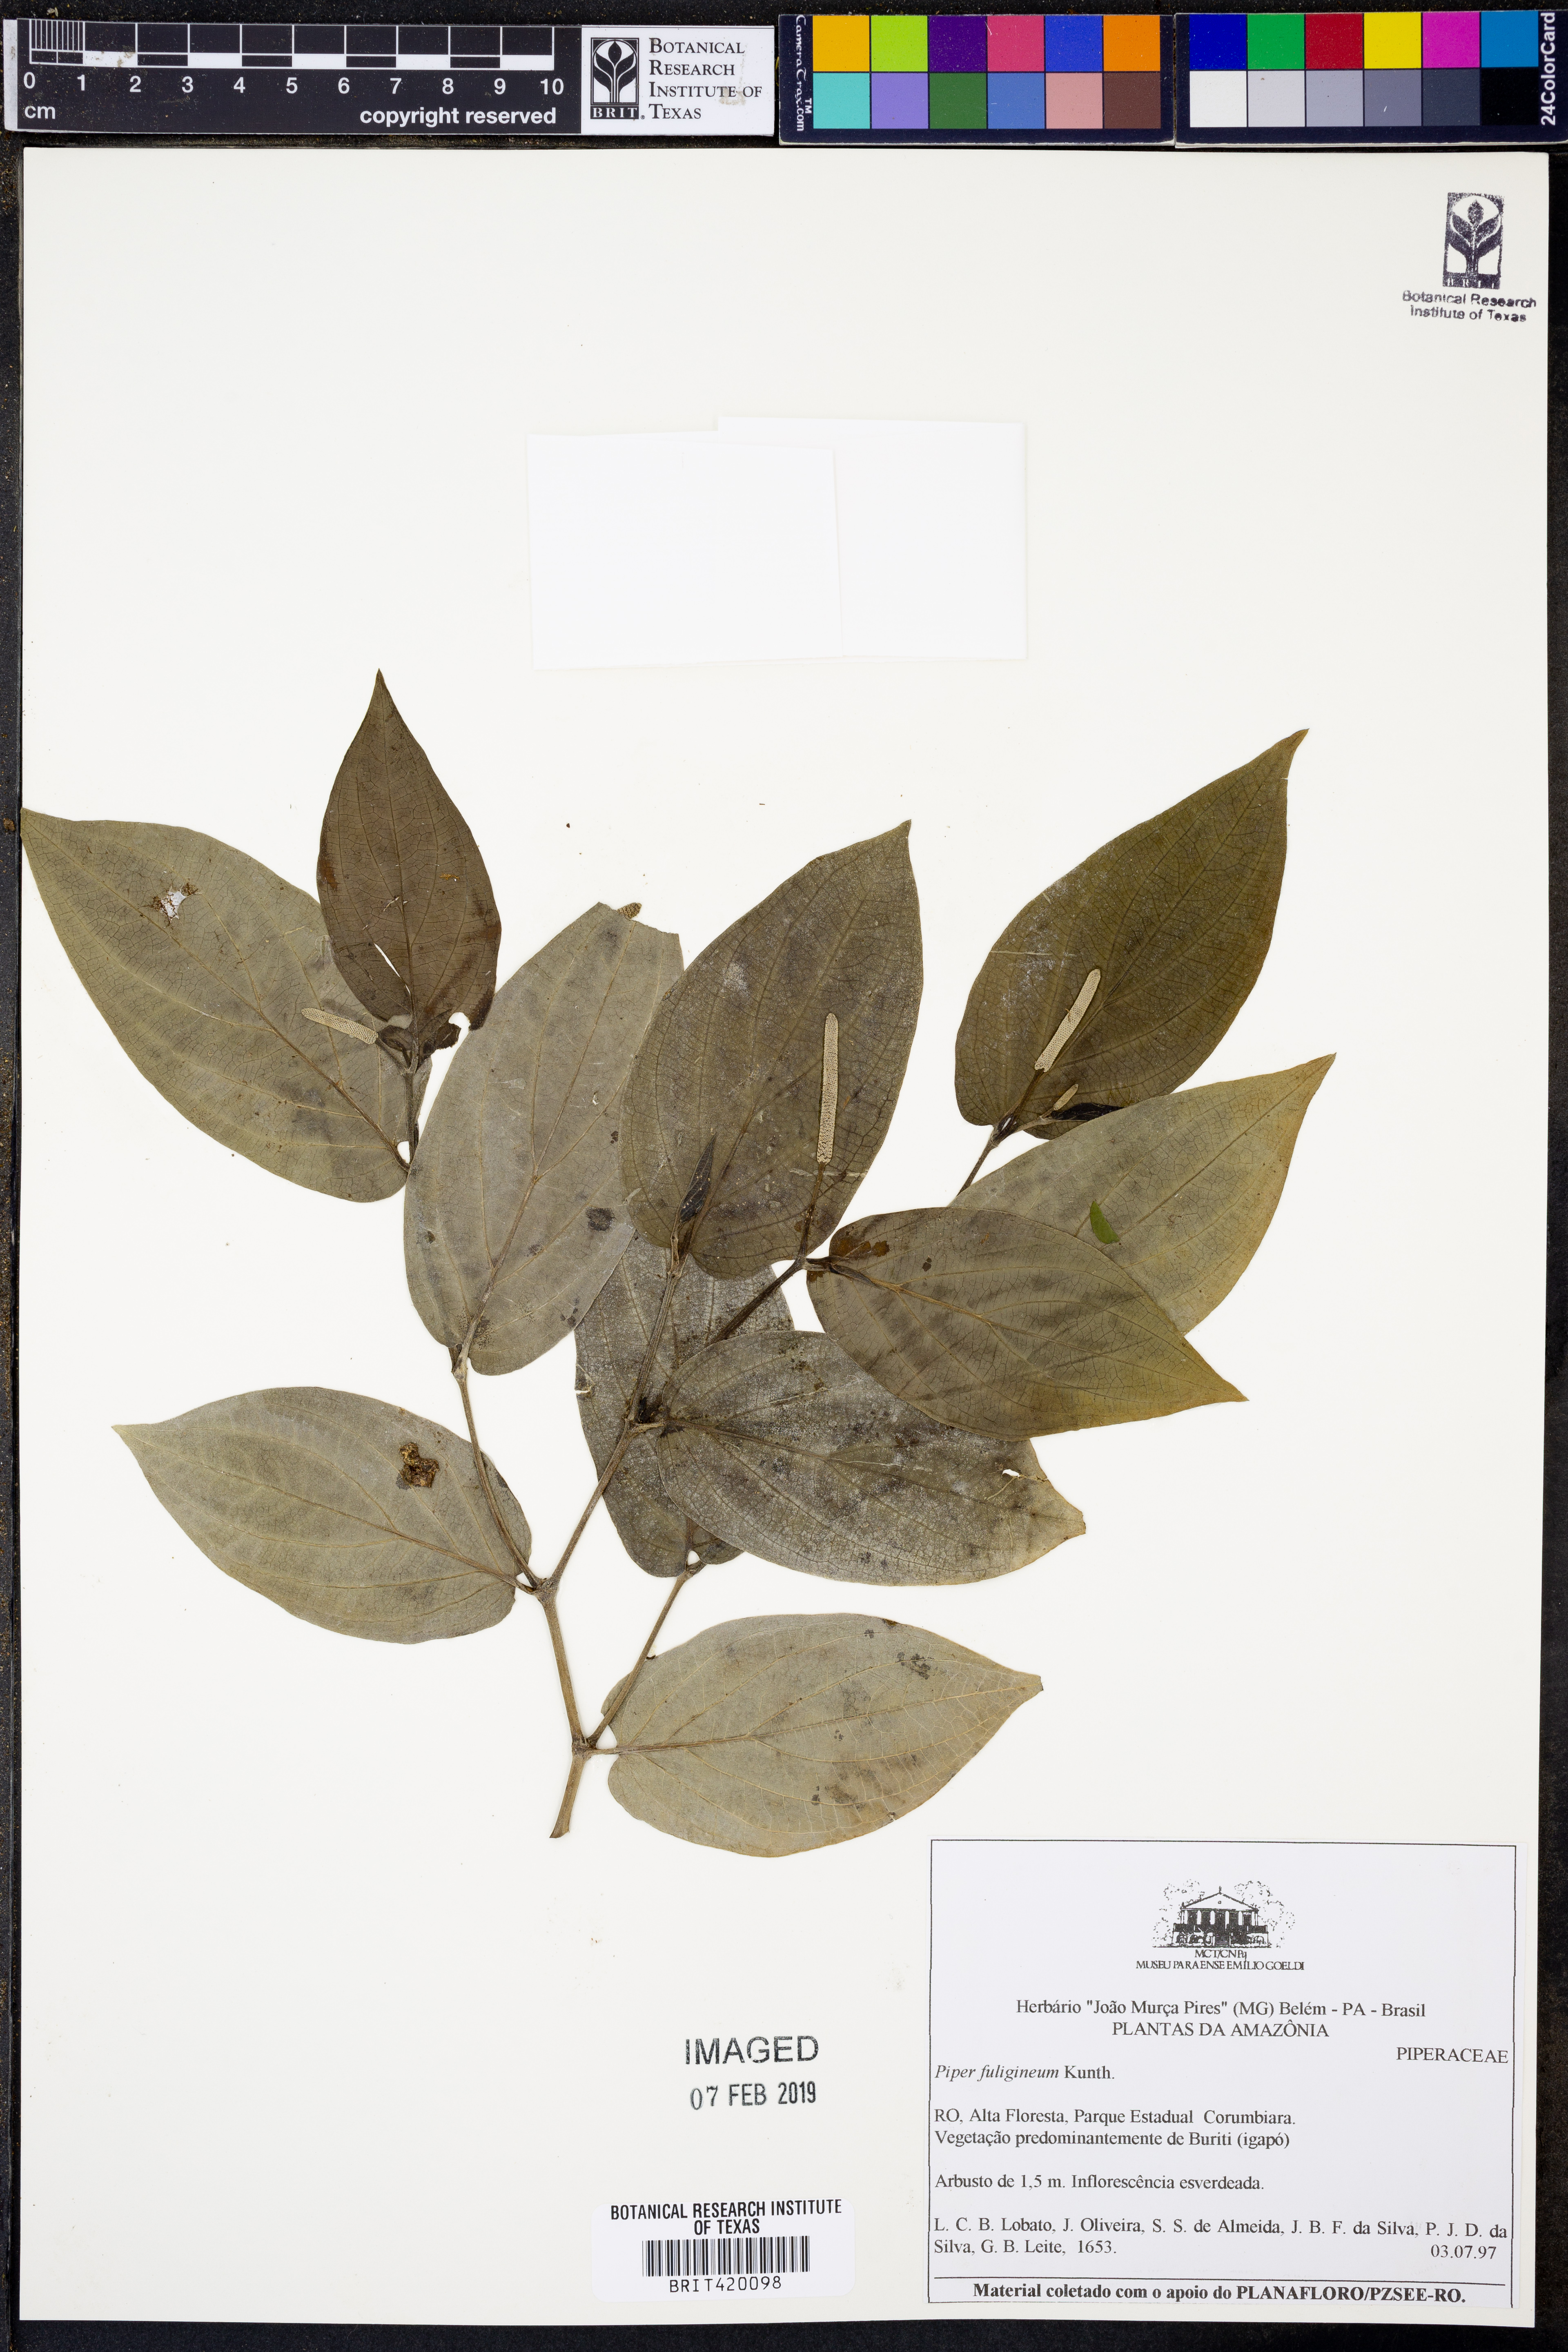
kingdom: Plantae
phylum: Tracheophyta
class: Magnoliopsida
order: Piperales
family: Piperaceae
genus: Piper
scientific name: Piper fuligineum
